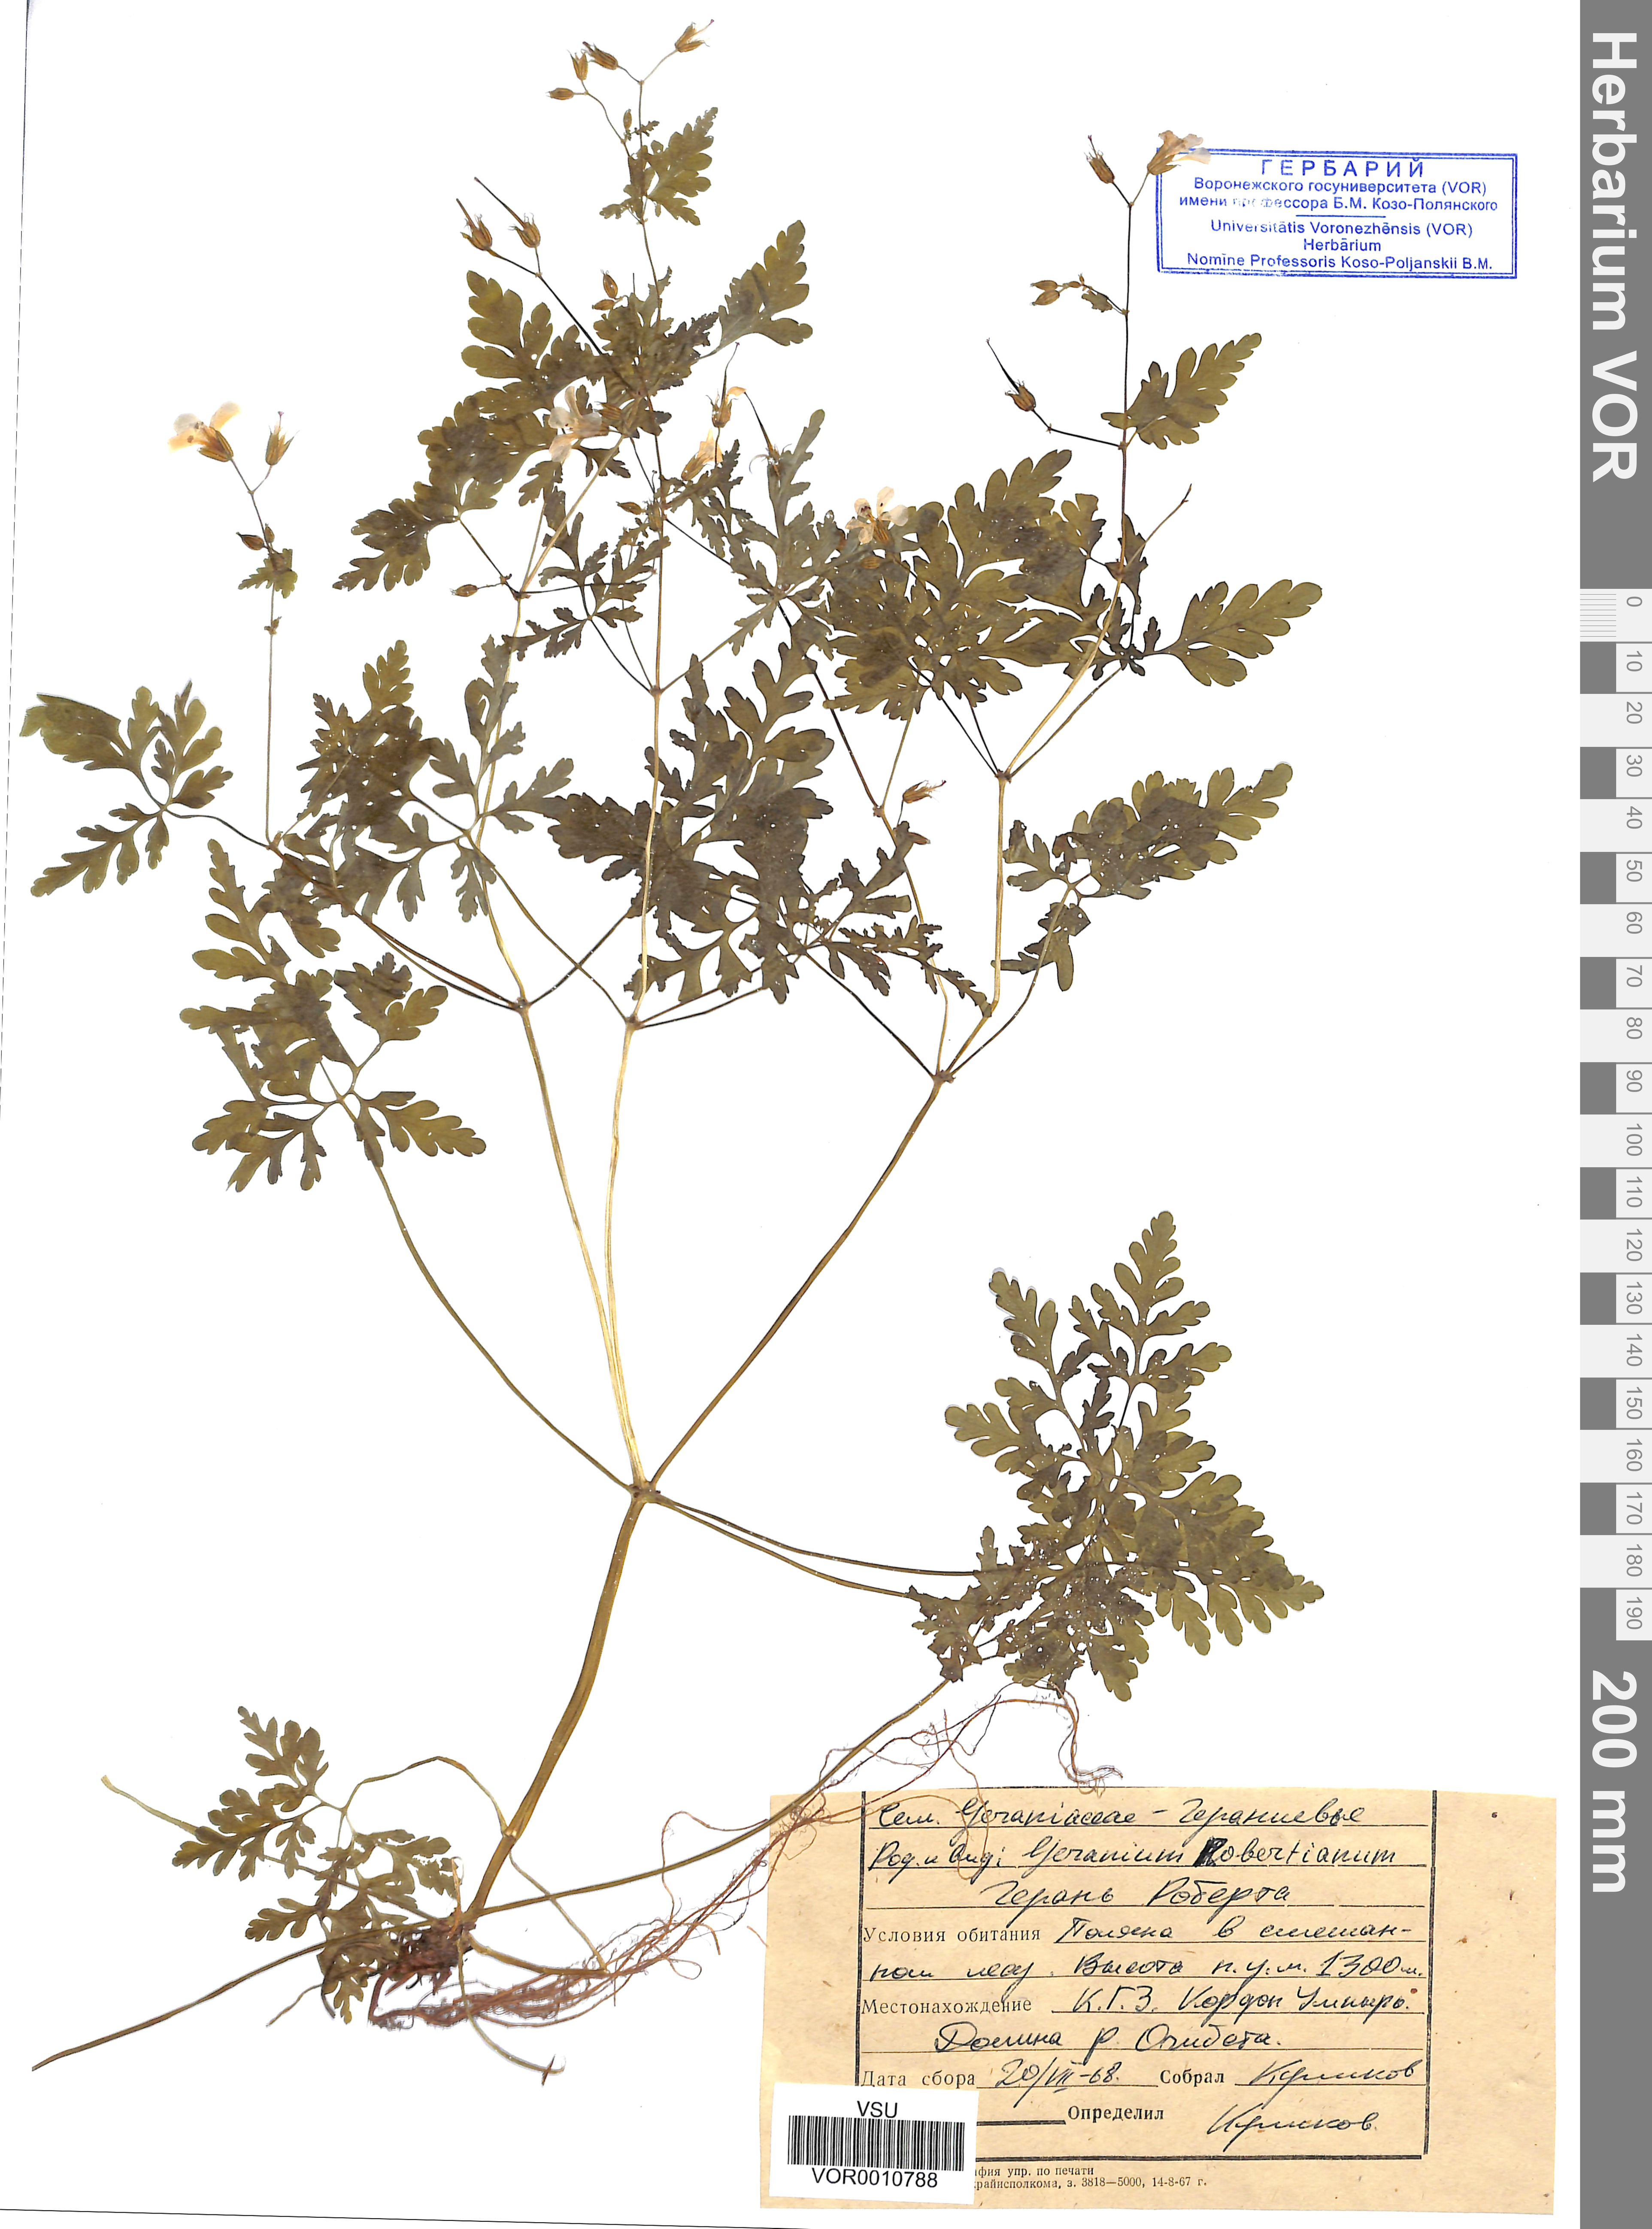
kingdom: Plantae
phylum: Tracheophyta
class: Magnoliopsida
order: Geraniales
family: Geraniaceae
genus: Geranium
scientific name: Geranium robertianum
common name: Herb-robert
